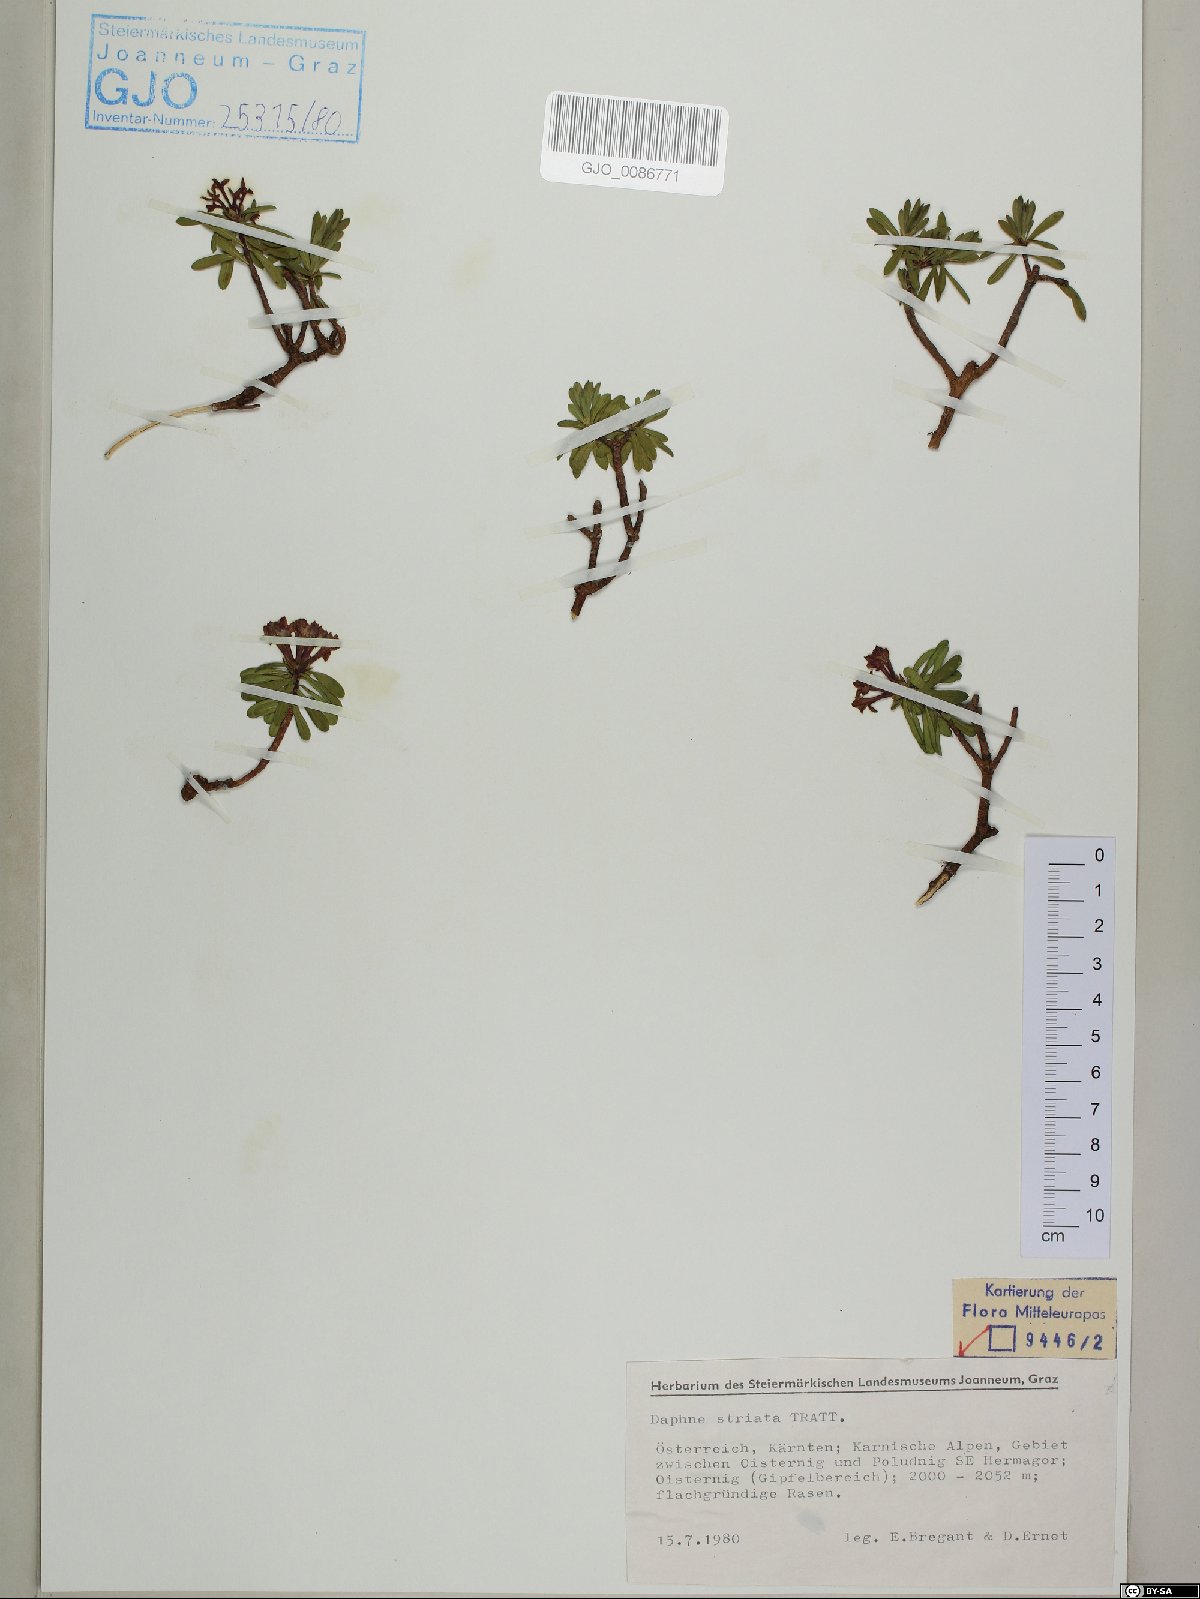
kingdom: Plantae
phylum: Tracheophyta
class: Magnoliopsida
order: Malvales
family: Thymelaeaceae
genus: Daphne
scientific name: Daphne striata
